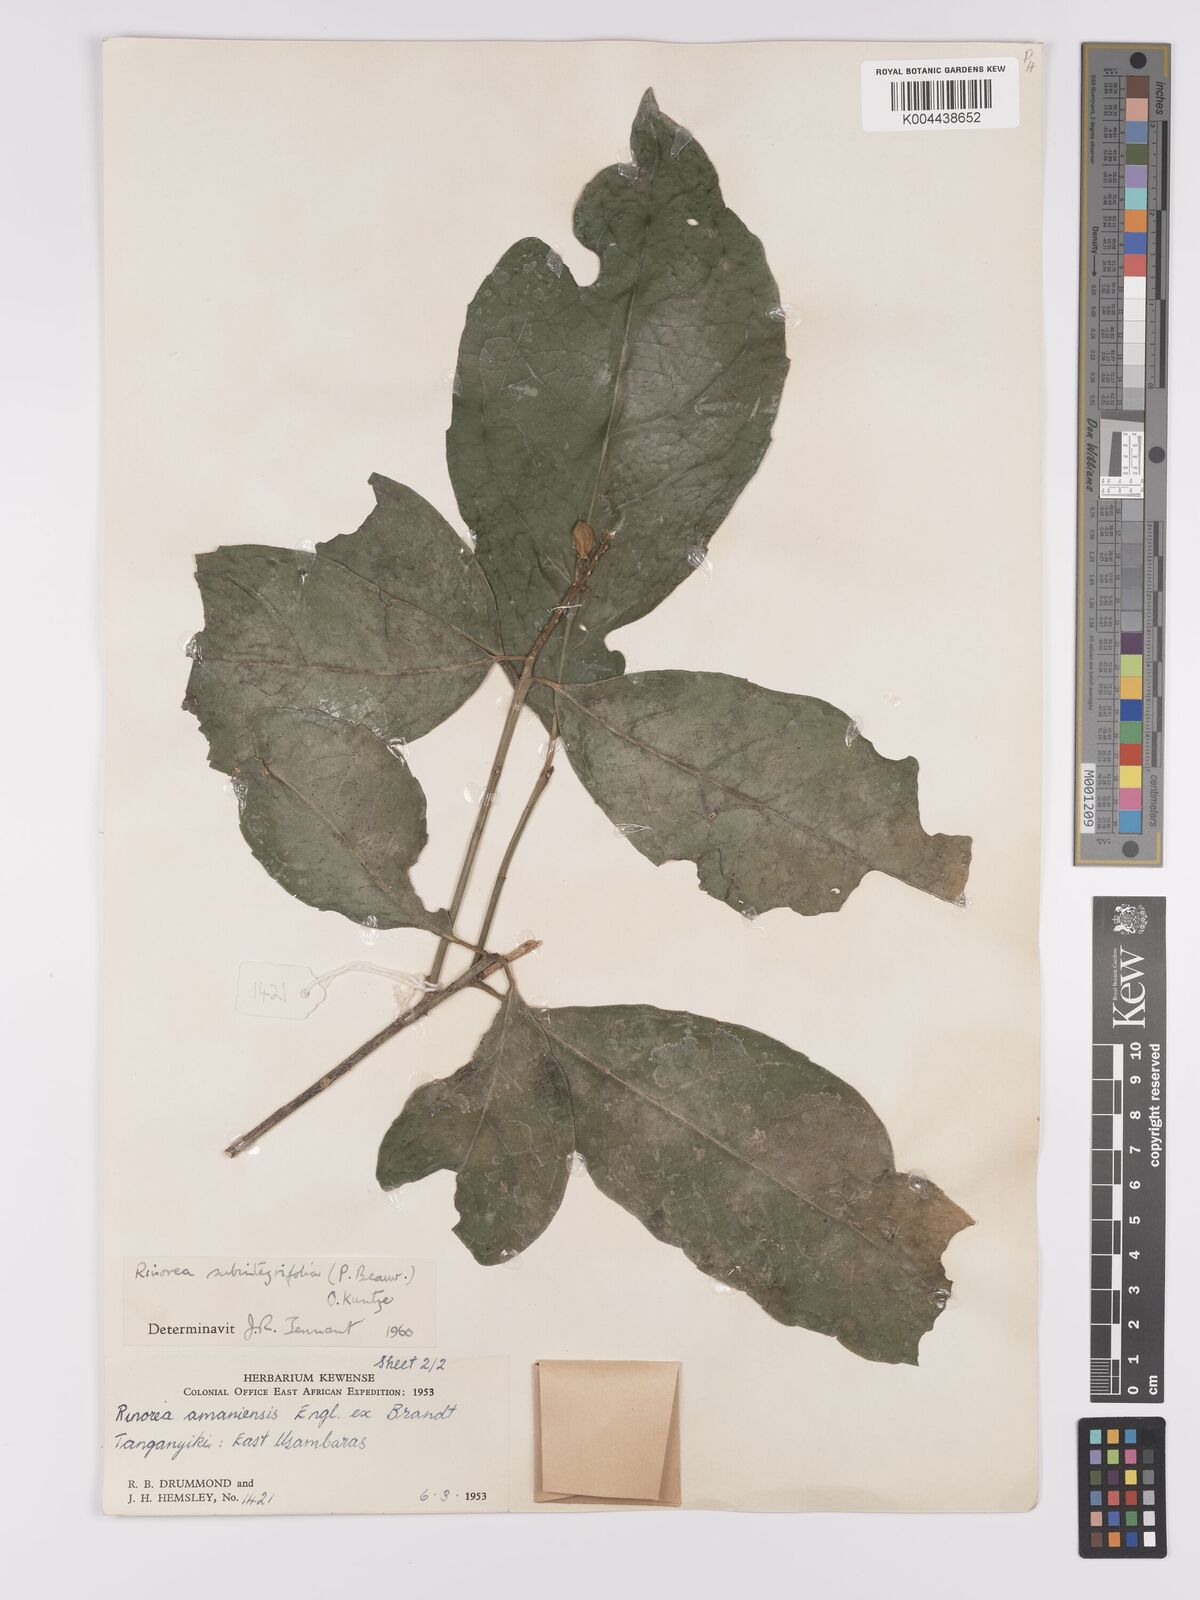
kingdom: Plantae
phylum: Tracheophyta
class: Magnoliopsida
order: Apiales
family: Pittosporaceae
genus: Marianthus
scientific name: Marianthus coeruleopunctatus
